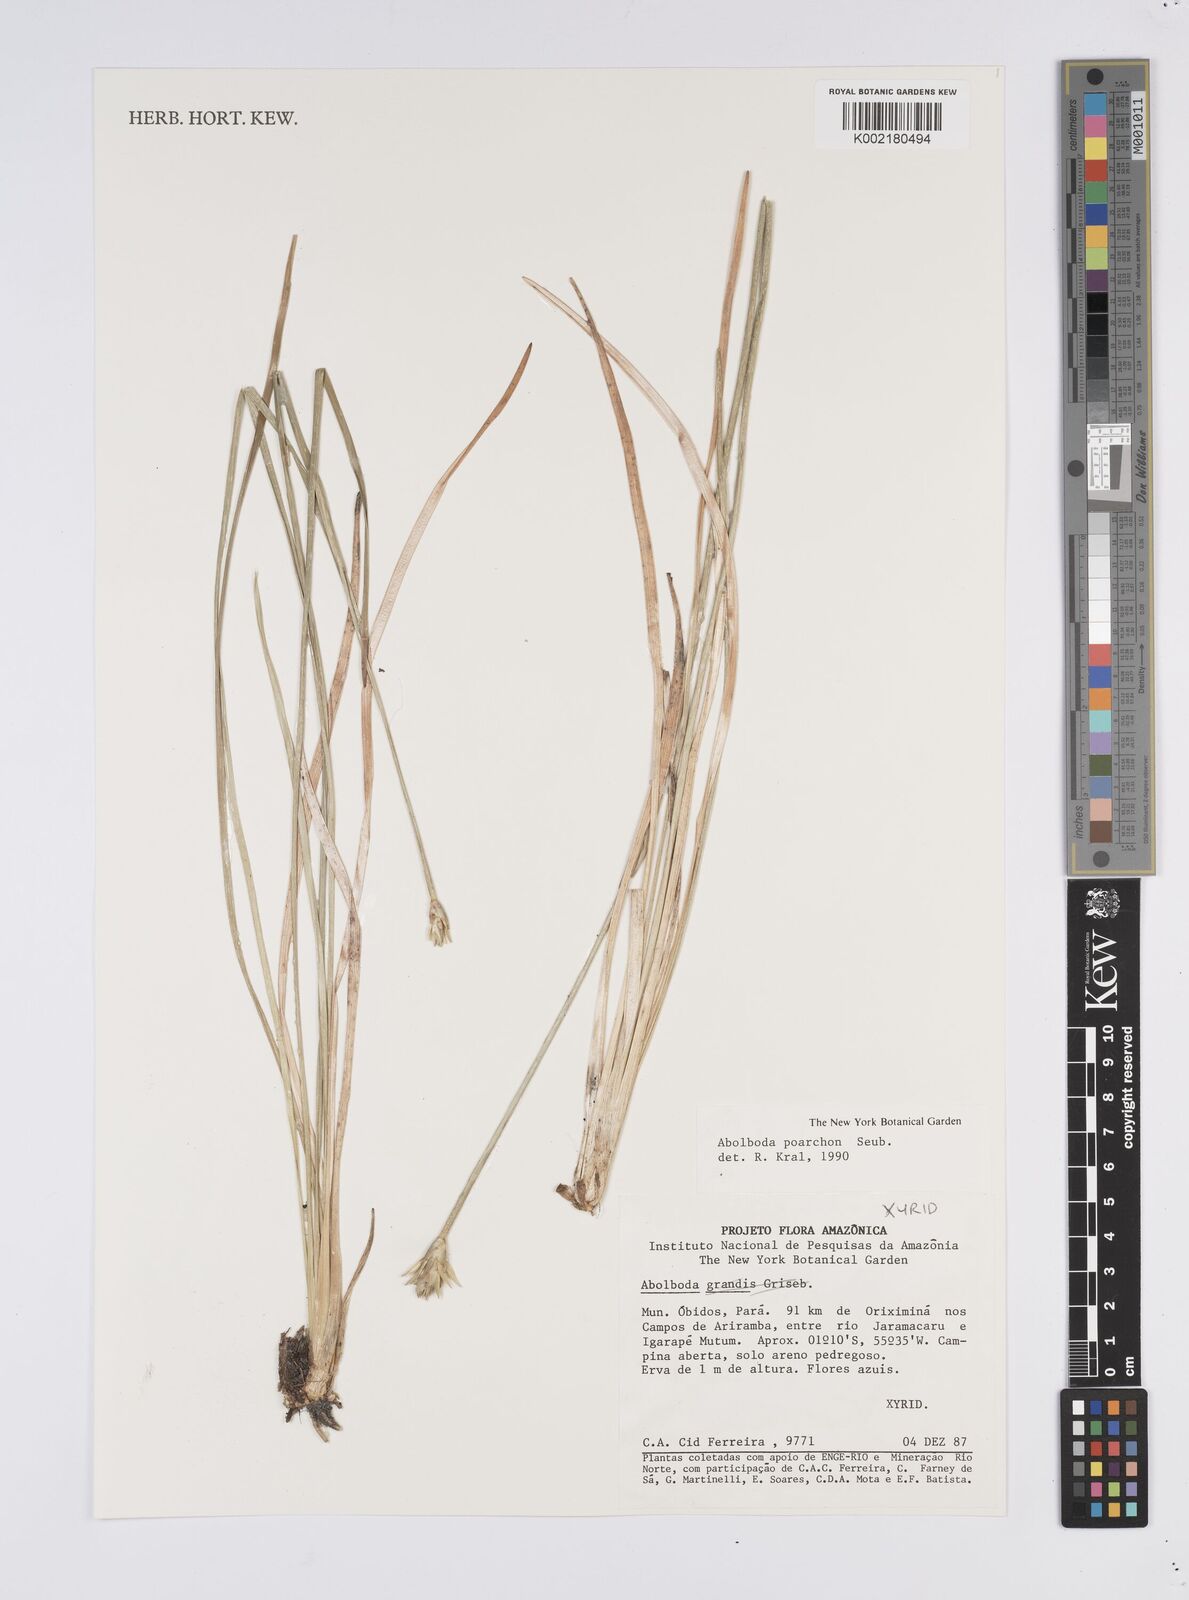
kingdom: Plantae
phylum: Tracheophyta
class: Liliopsida
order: Poales
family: Xyridaceae
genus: Abolboda
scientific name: Abolboda poarchon
